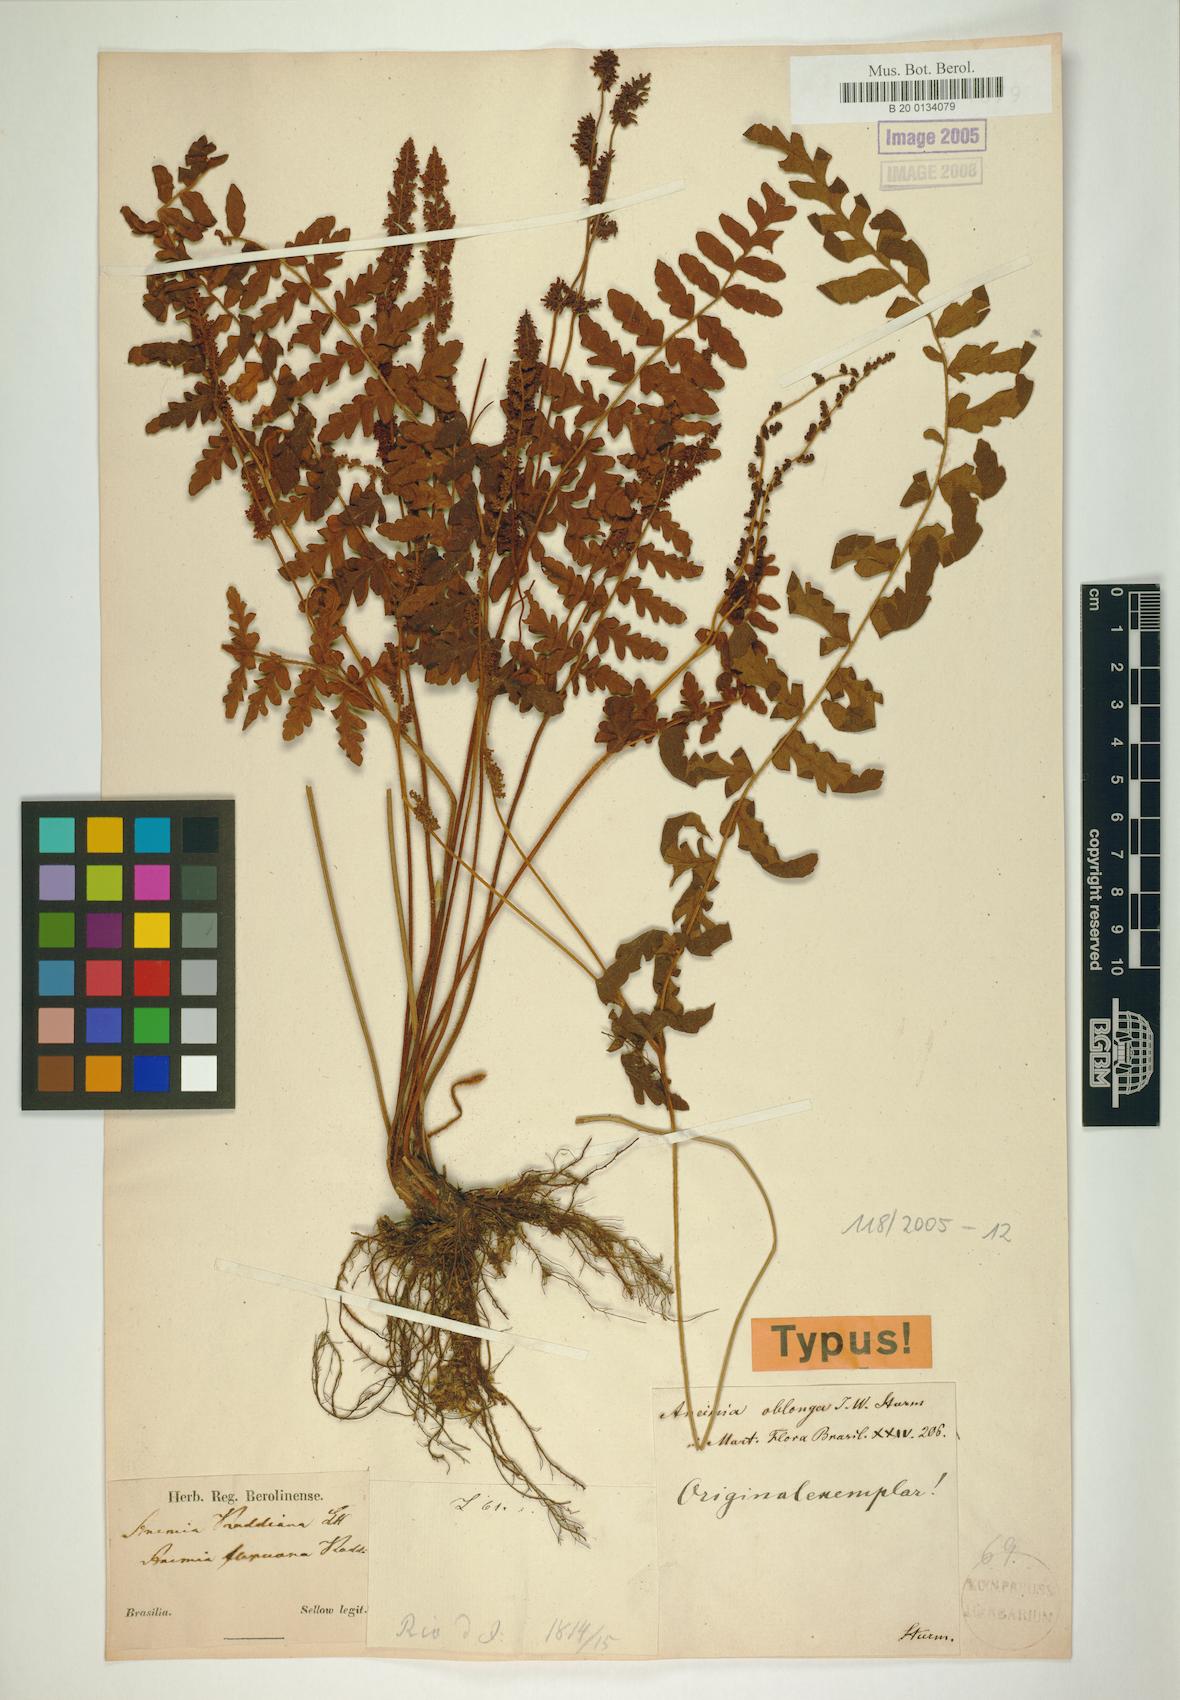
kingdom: Plantae
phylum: Tracheophyta
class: Polypodiopsida
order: Schizaeales
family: Anemiaceae
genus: Anemia
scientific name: Anemia flexuosa
